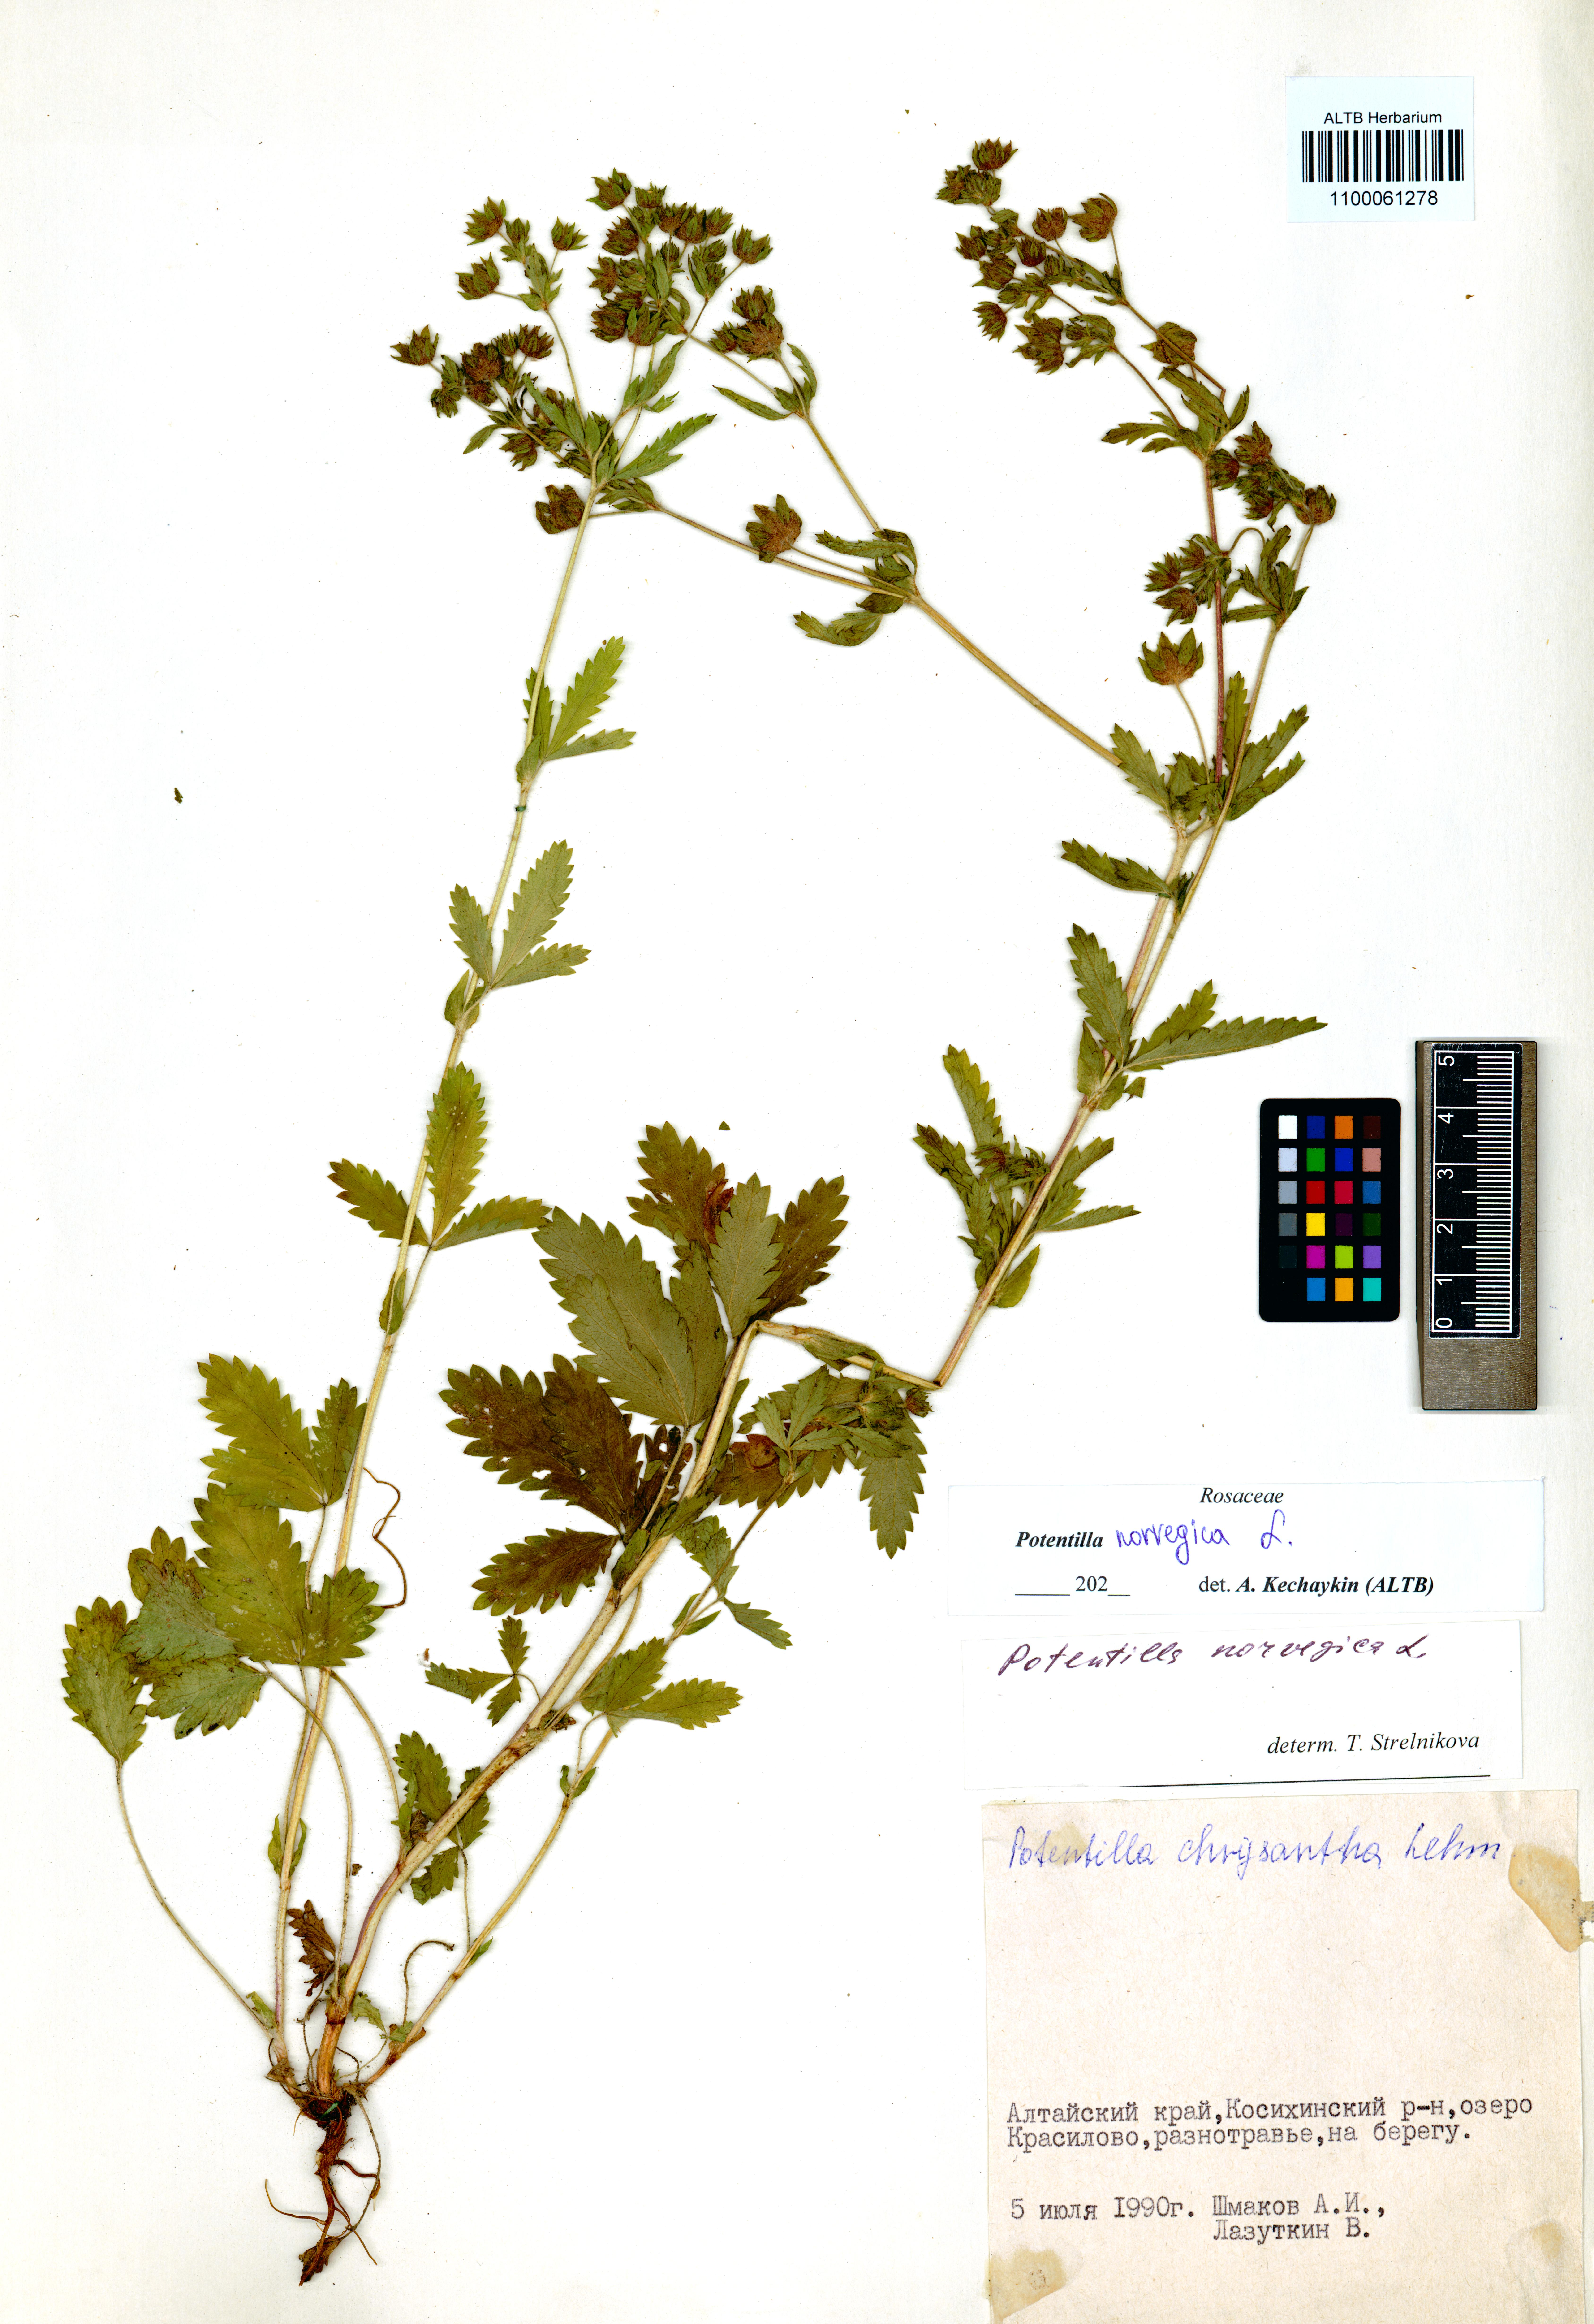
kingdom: Plantae
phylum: Tracheophyta
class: Magnoliopsida
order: Rosales
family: Rosaceae
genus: Potentilla
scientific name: Potentilla norvegica
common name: Ternate-leaved cinquefoil
